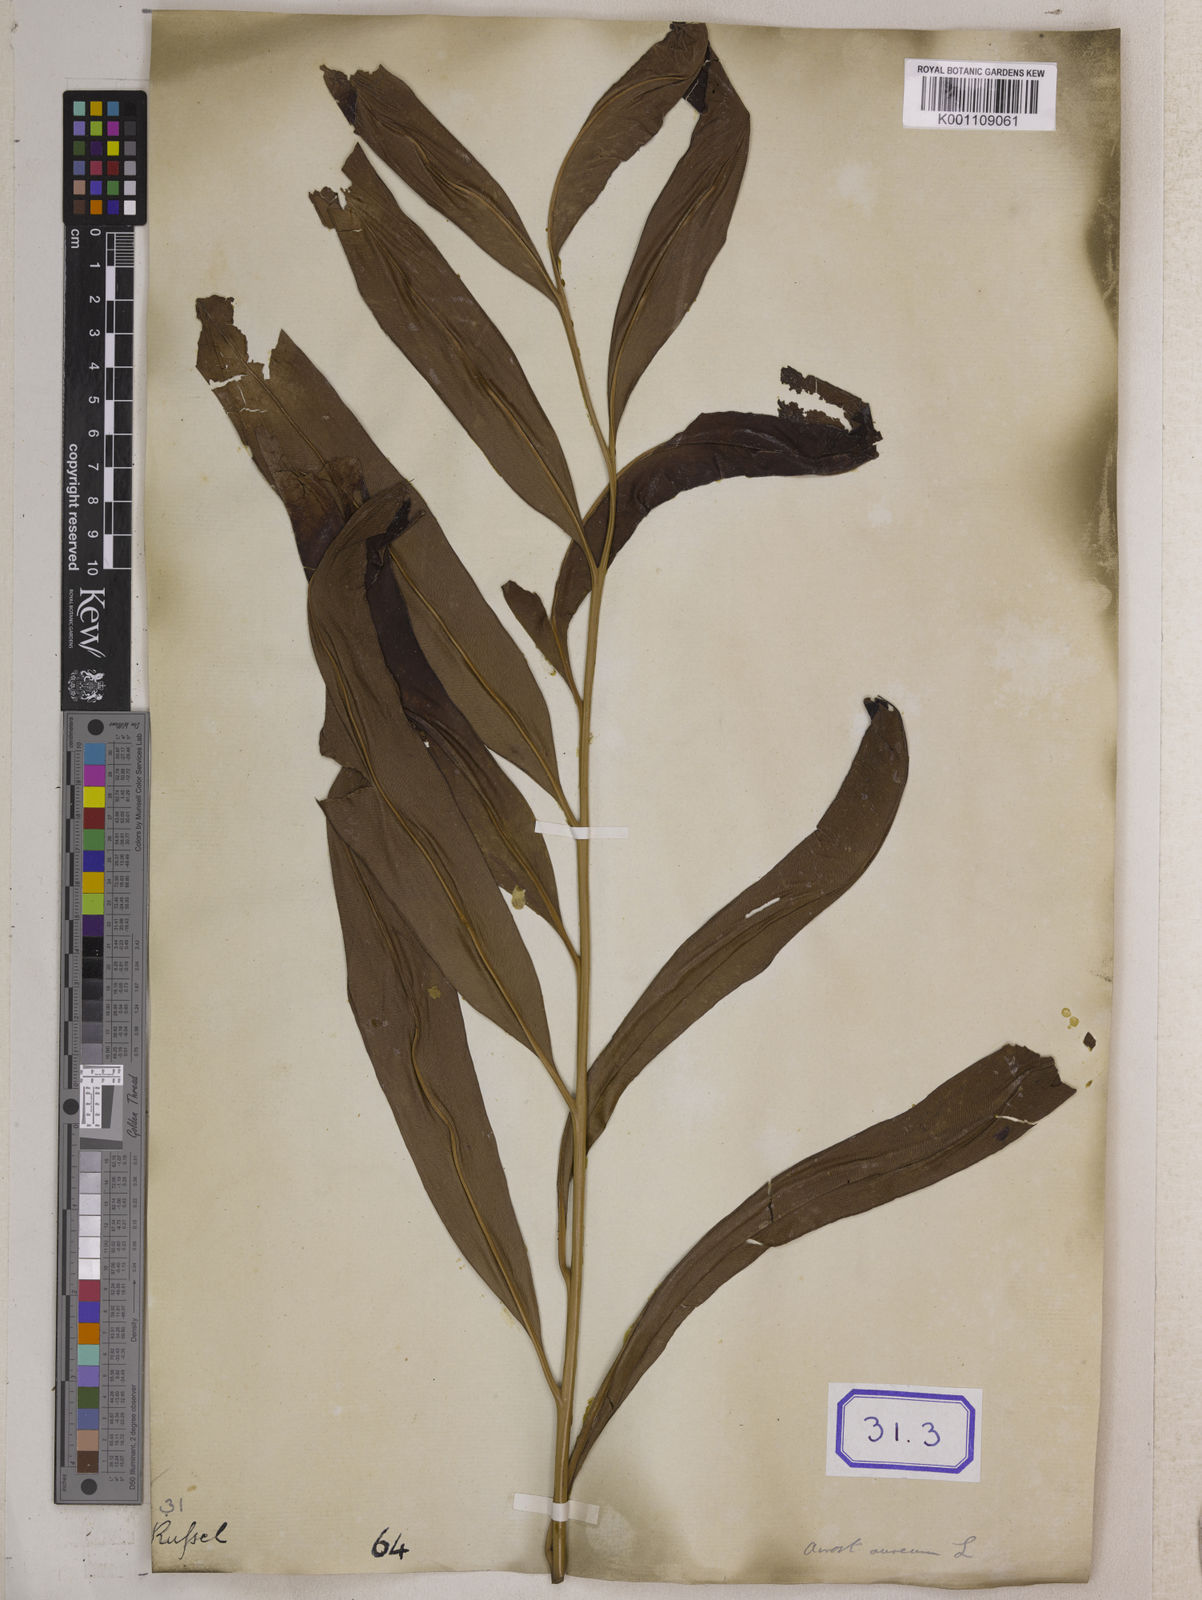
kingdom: Plantae
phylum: Tracheophyta
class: Polypodiopsida
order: Polypodiales
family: Pteridaceae
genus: Acrostichum
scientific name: Acrostichum aureum
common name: Leather fern
